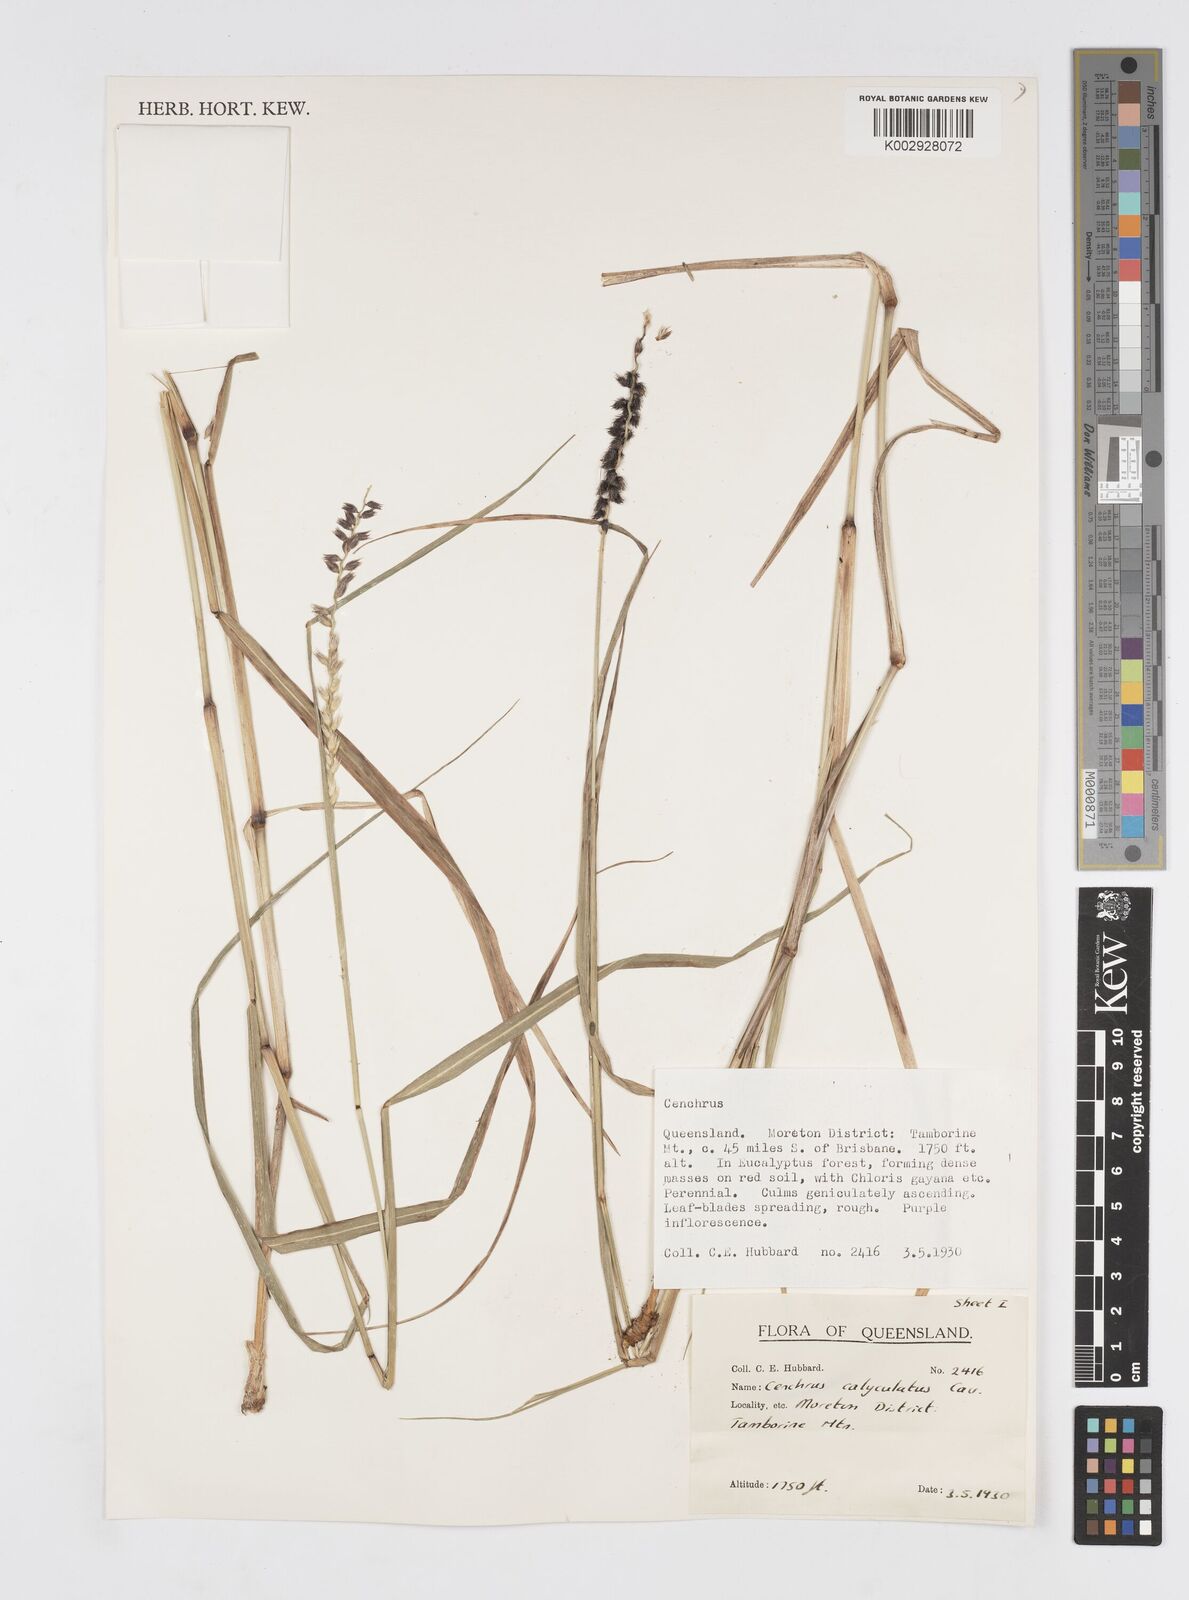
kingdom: Plantae
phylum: Tracheophyta
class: Liliopsida
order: Poales
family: Poaceae
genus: Cenchrus
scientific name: Cenchrus caliculatus
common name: Large bur grass
